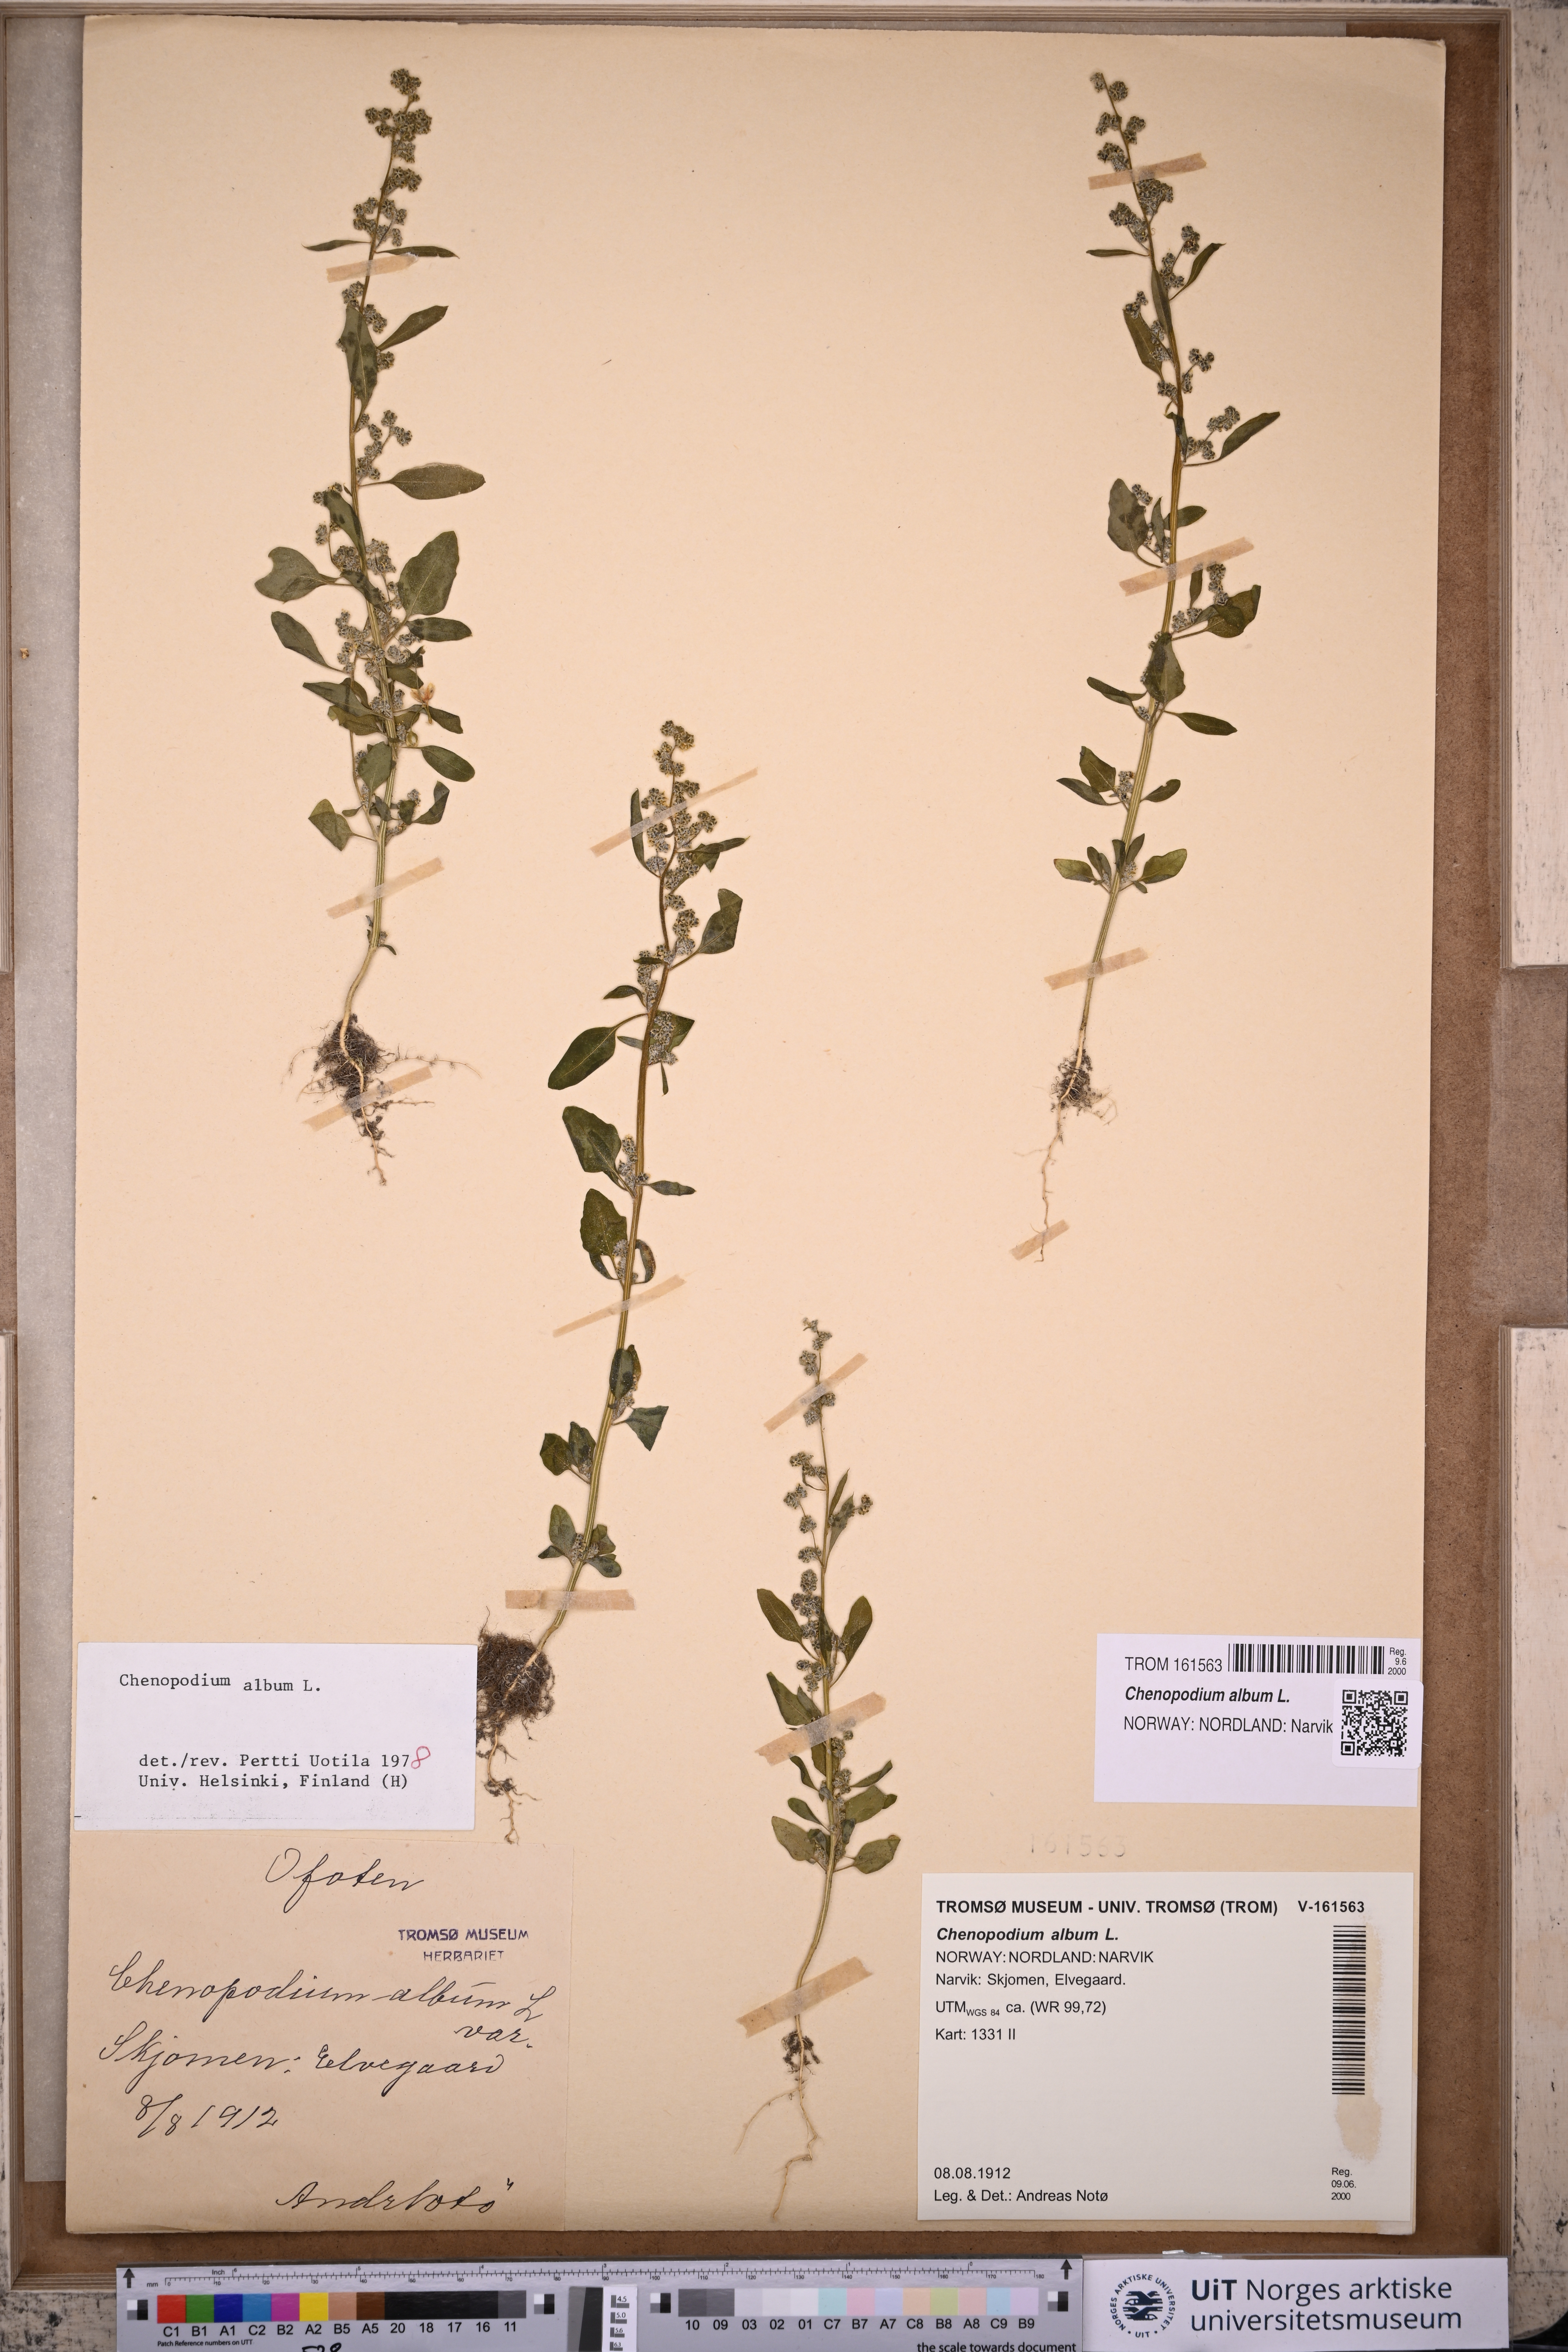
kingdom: Plantae
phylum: Tracheophyta
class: Magnoliopsida
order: Caryophyllales
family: Amaranthaceae
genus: Chenopodium
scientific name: Chenopodium album
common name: Fat-hen
